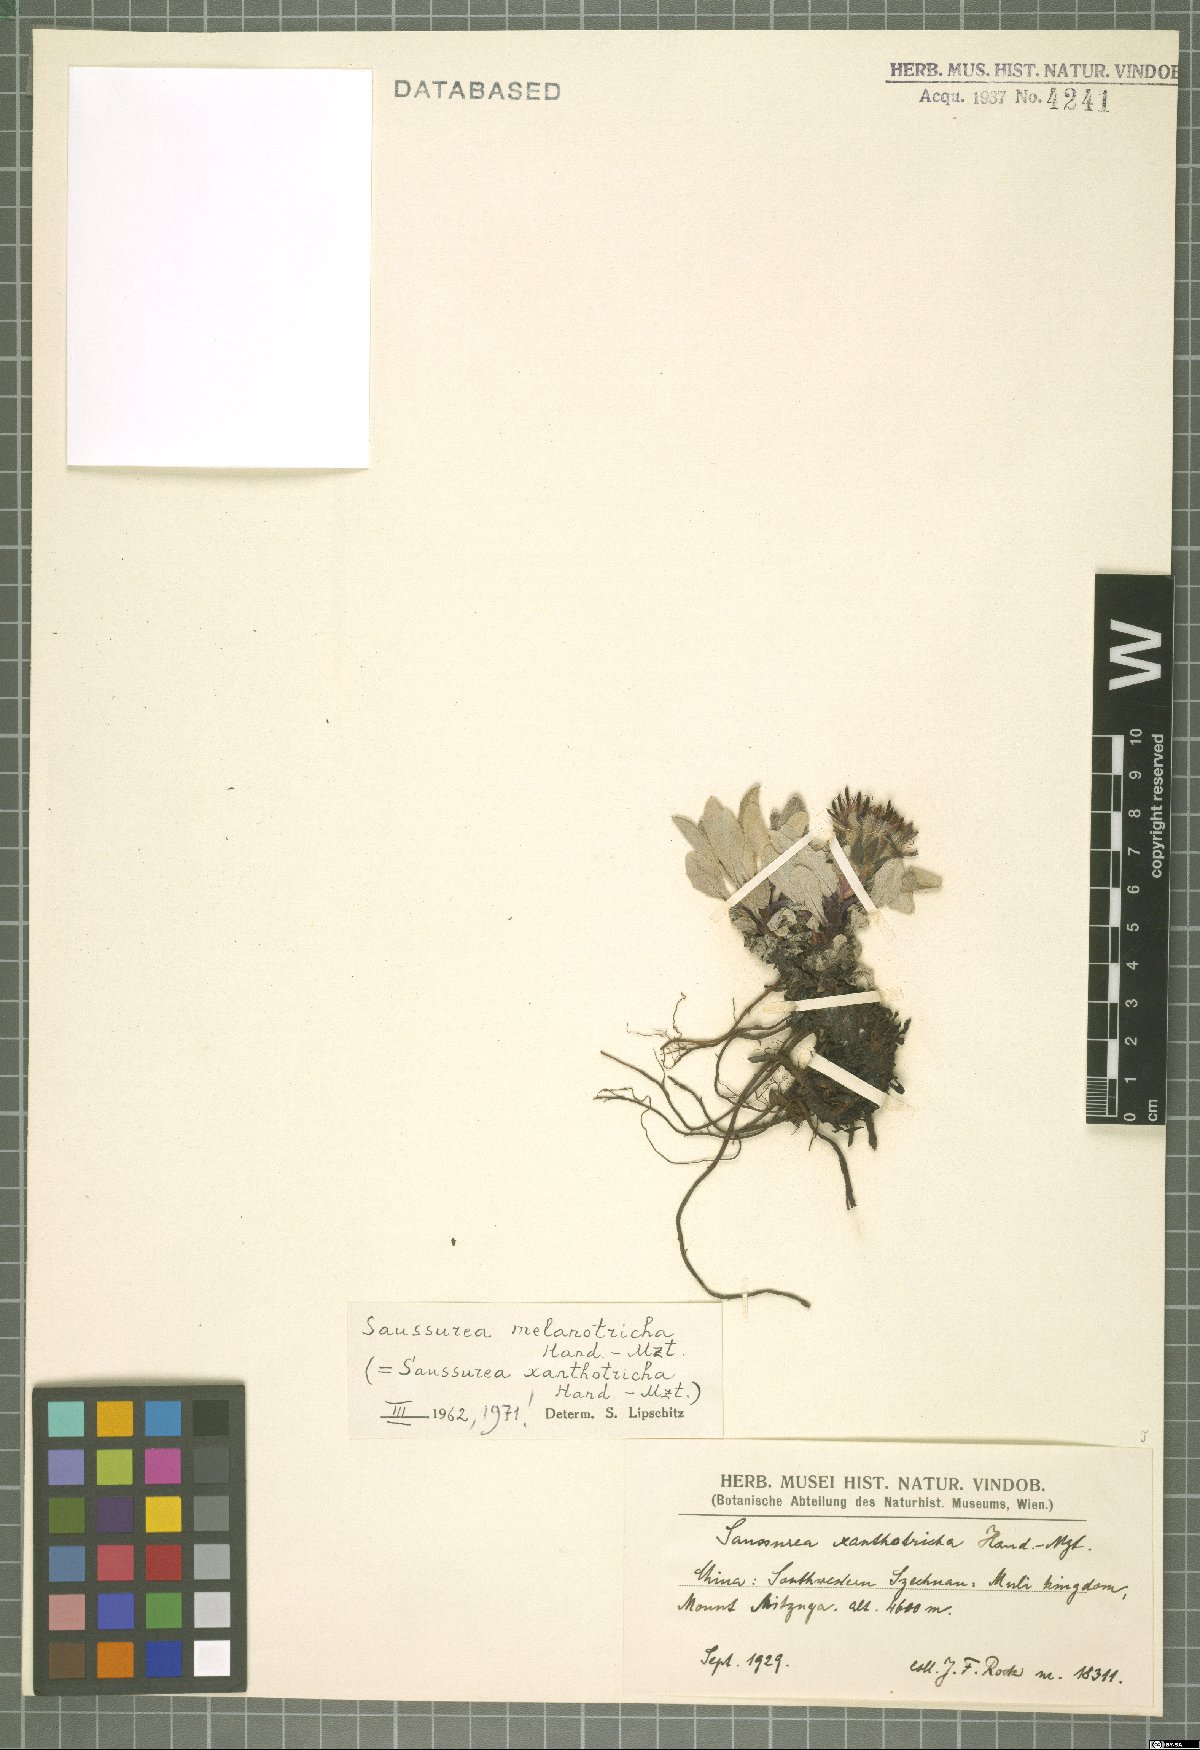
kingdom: Plantae
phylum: Tracheophyta
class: Magnoliopsida
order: Asterales
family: Asteraceae
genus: Saussurea
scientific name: Saussurea melanotricha
